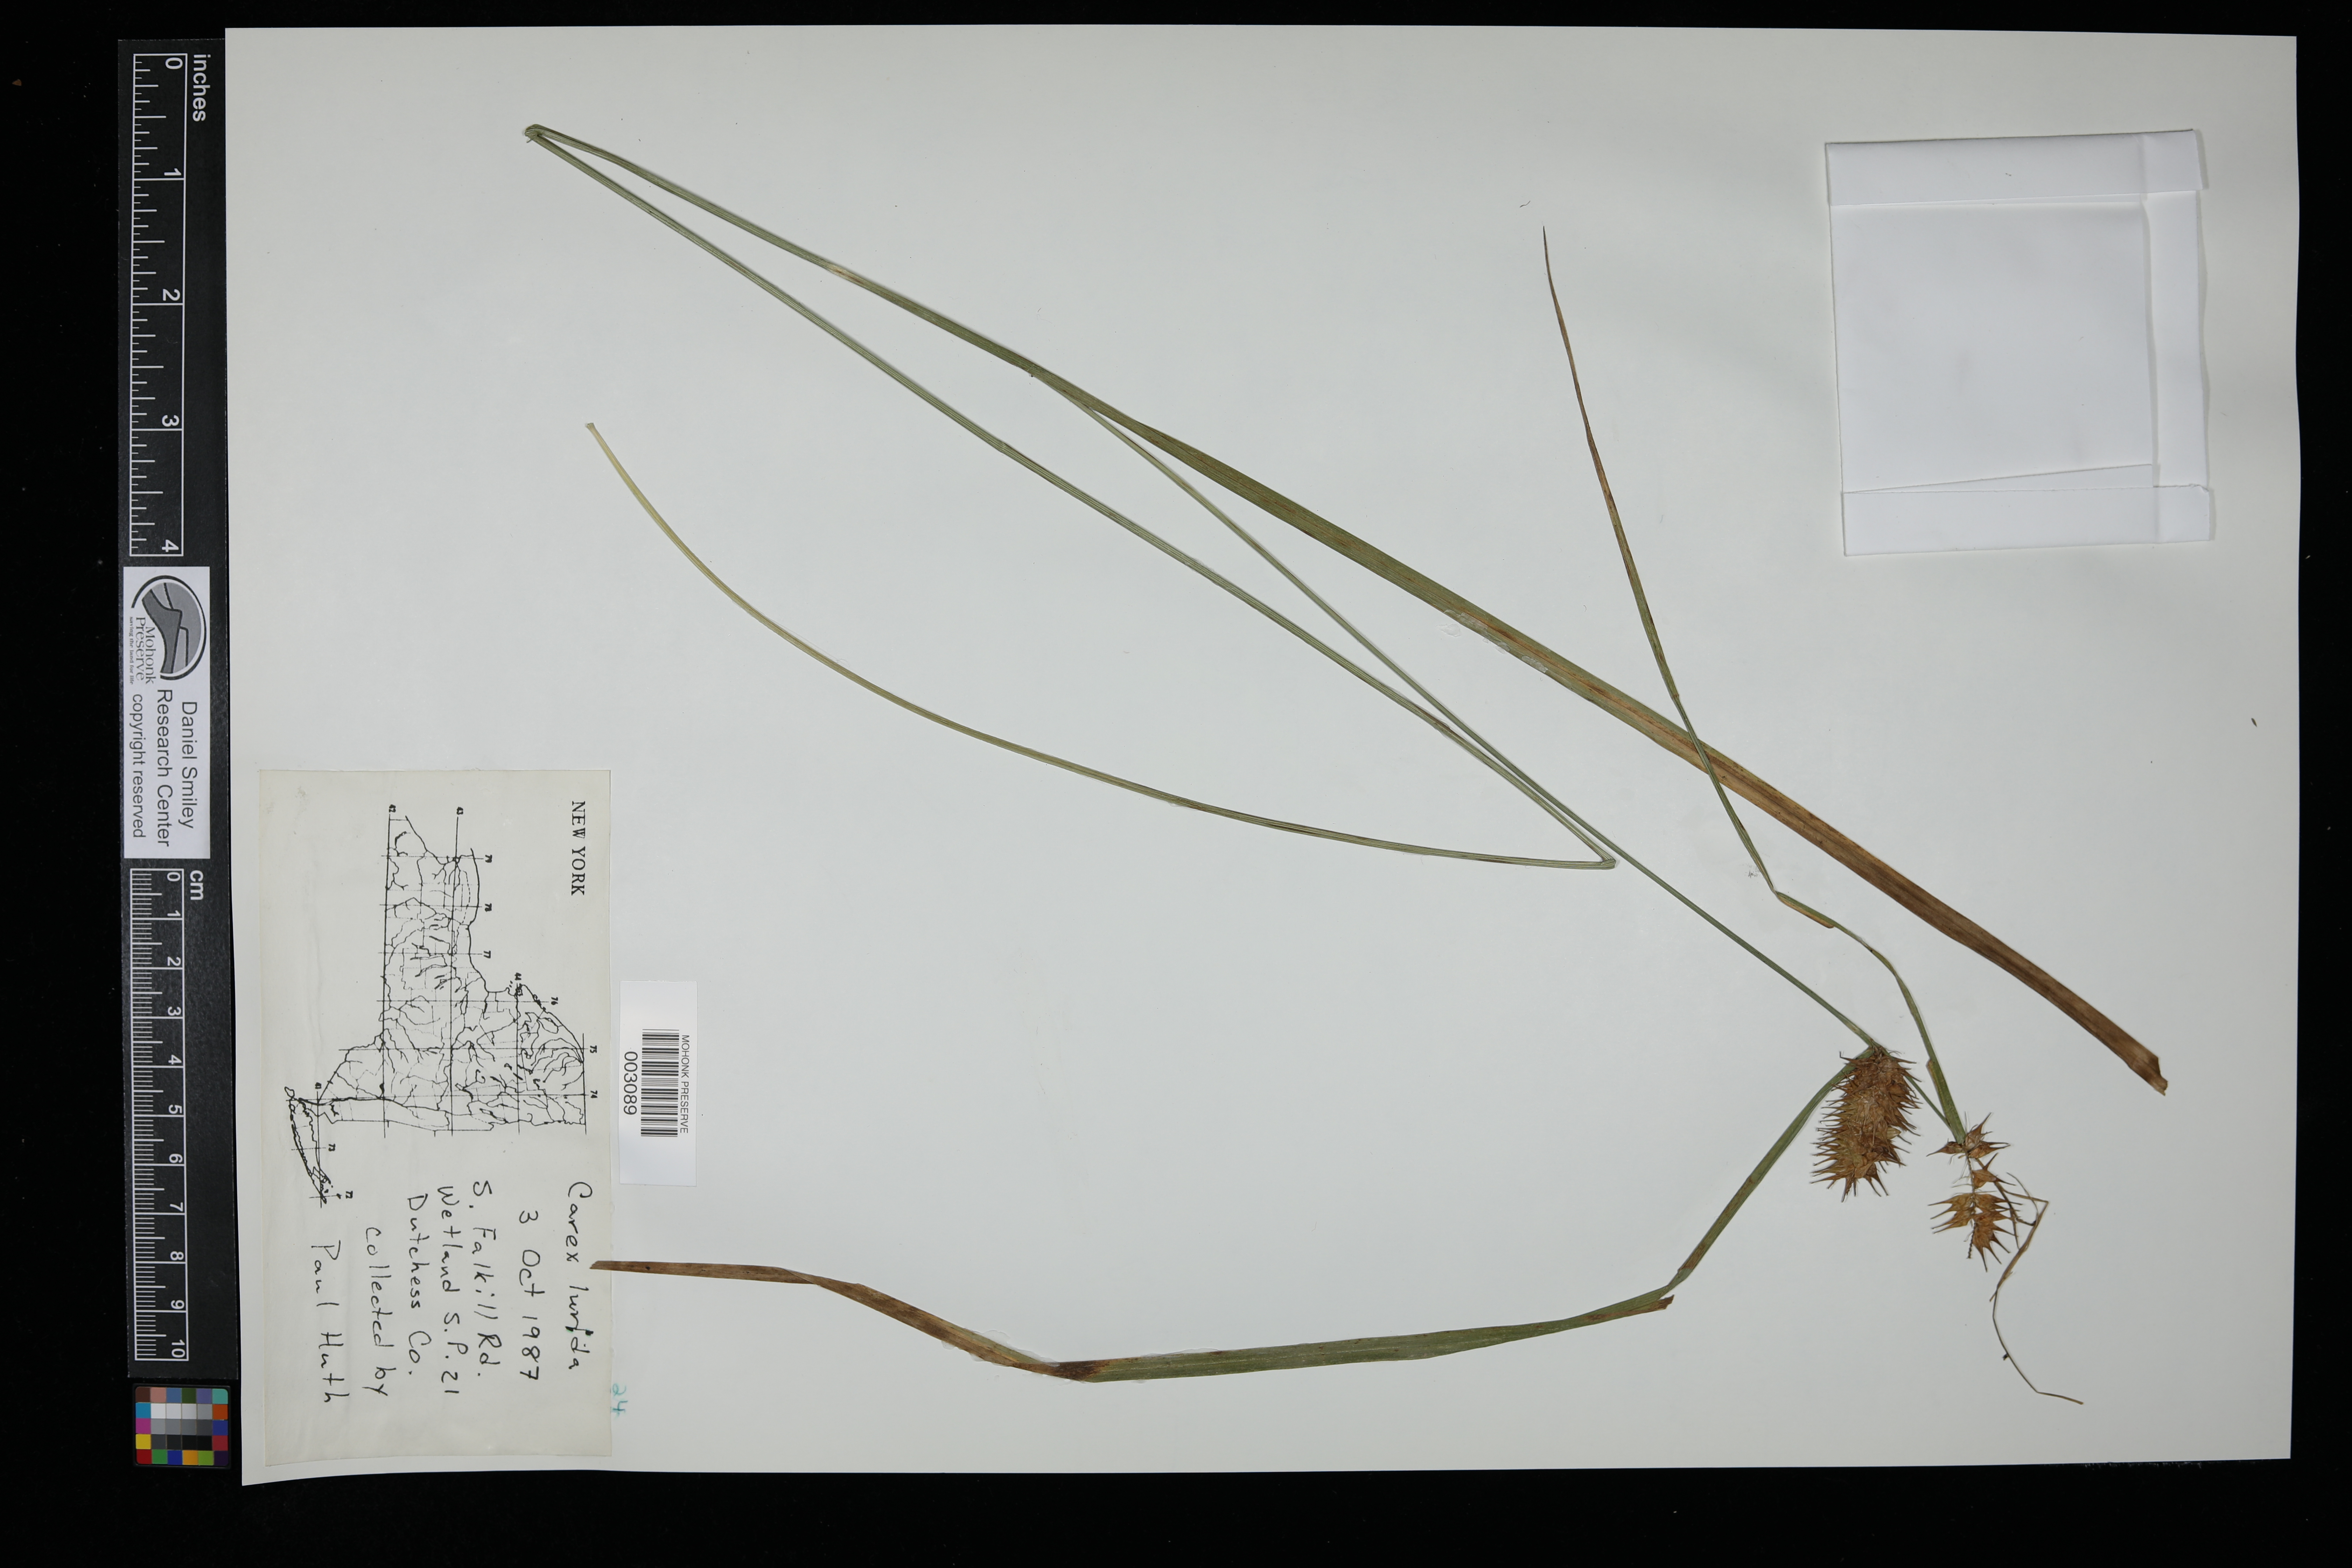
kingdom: Plantae
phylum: Tracheophyta
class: Liliopsida
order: Poales
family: Cyperaceae
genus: Carex
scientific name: Carex lurida
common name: Sallow sedge
